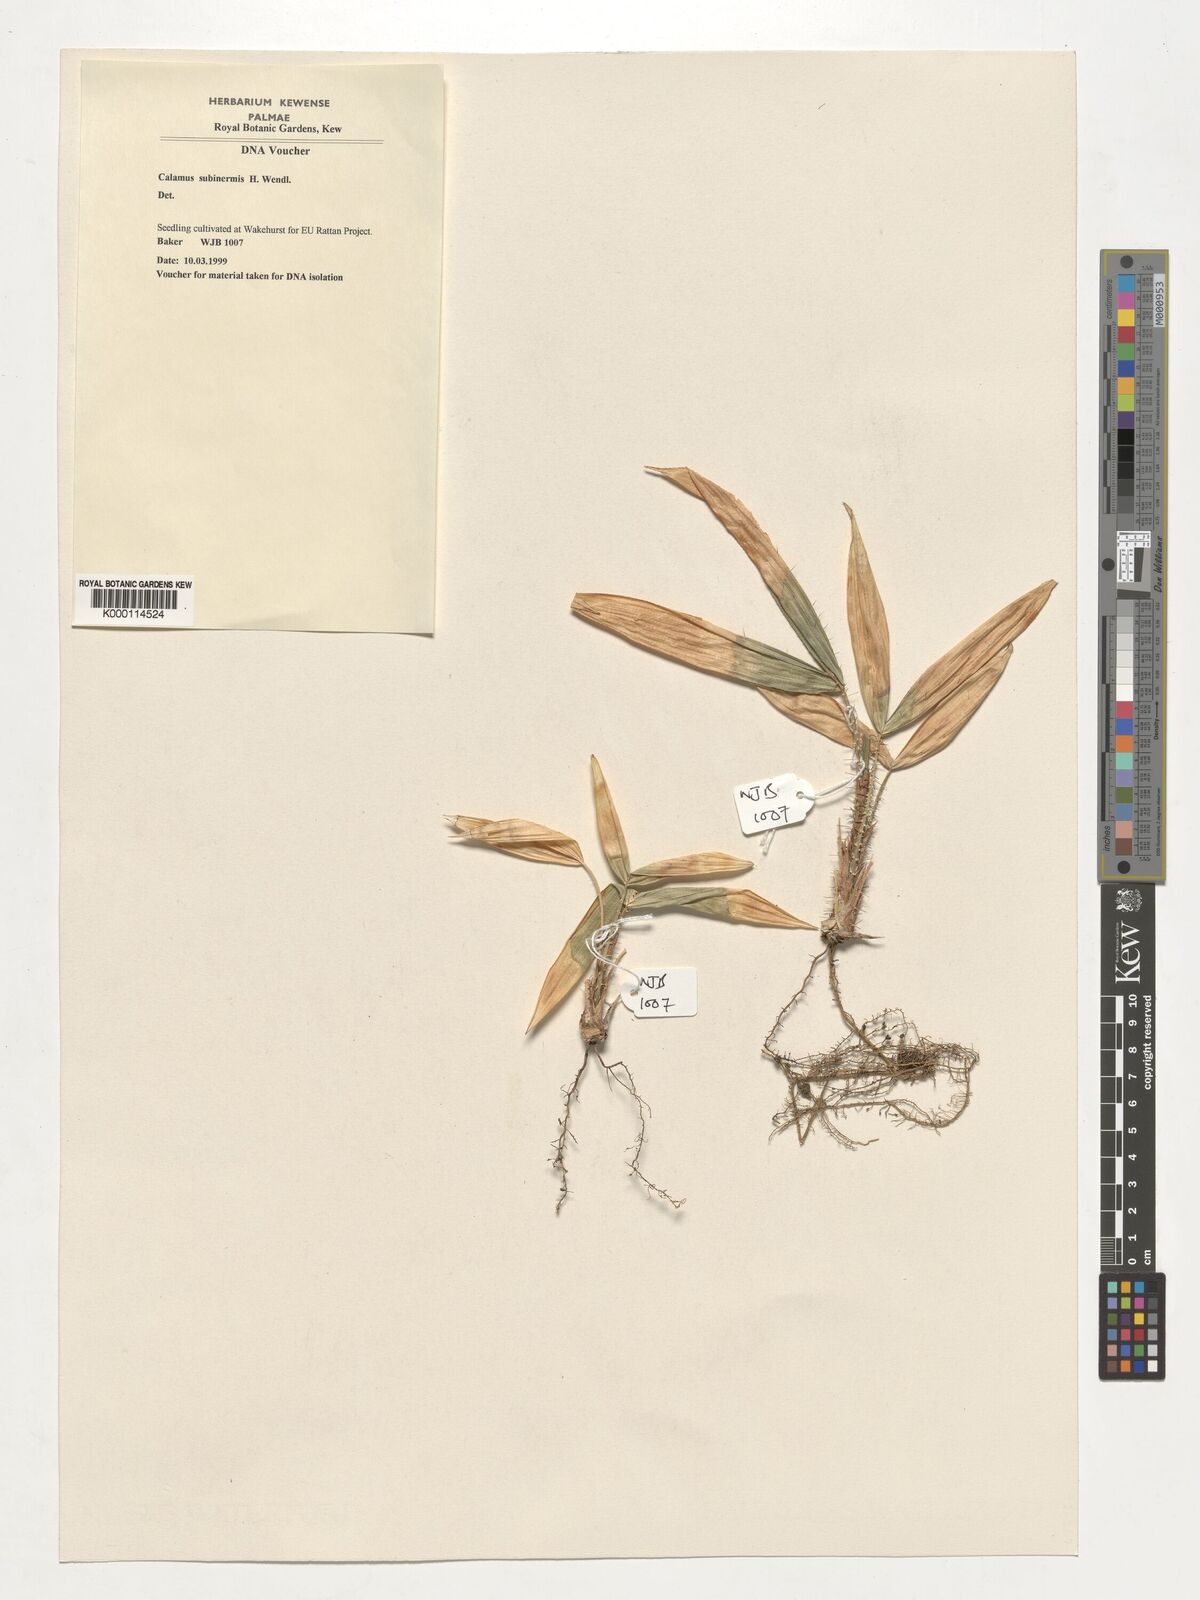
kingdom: Plantae
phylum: Tracheophyta
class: Liliopsida
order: Arecales
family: Arecaceae
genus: Calamus
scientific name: Calamus moseleyanus
